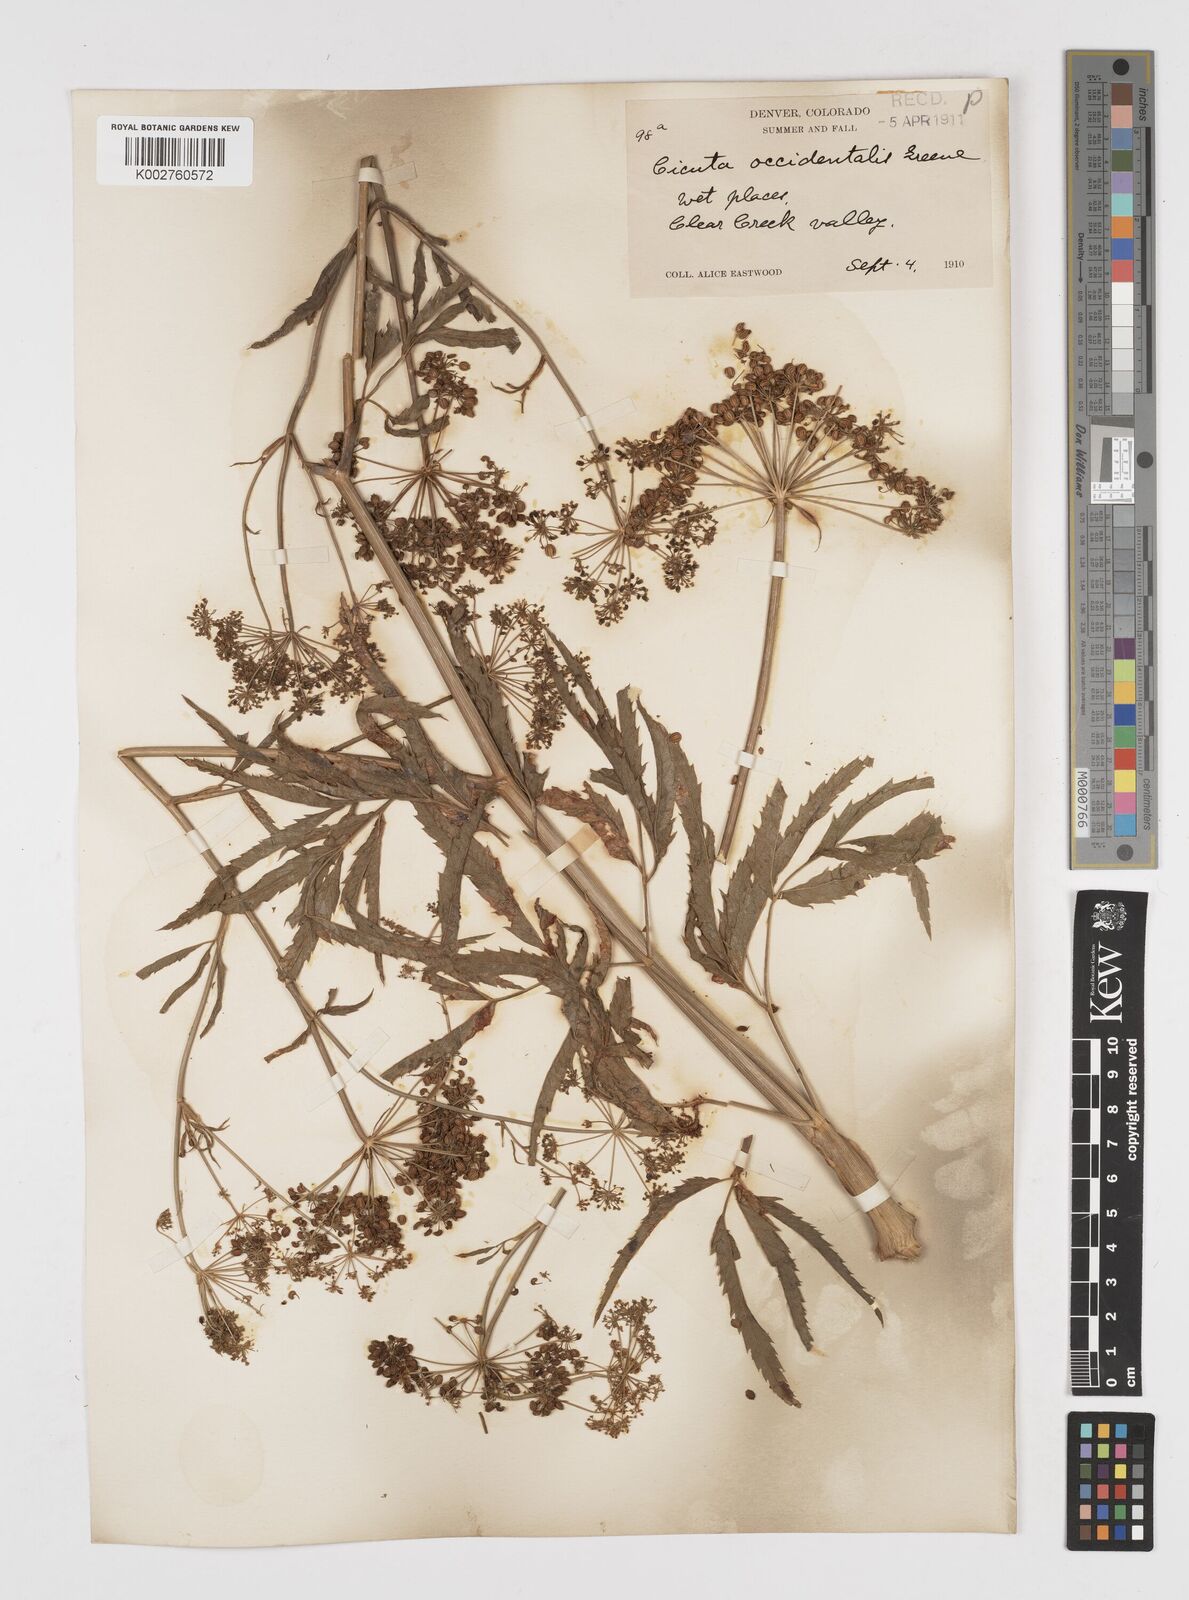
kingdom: Plantae
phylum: Tracheophyta
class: Magnoliopsida
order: Apiales
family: Apiaceae
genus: Cicuta
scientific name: Cicuta douglasii
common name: Western water-hemlock
